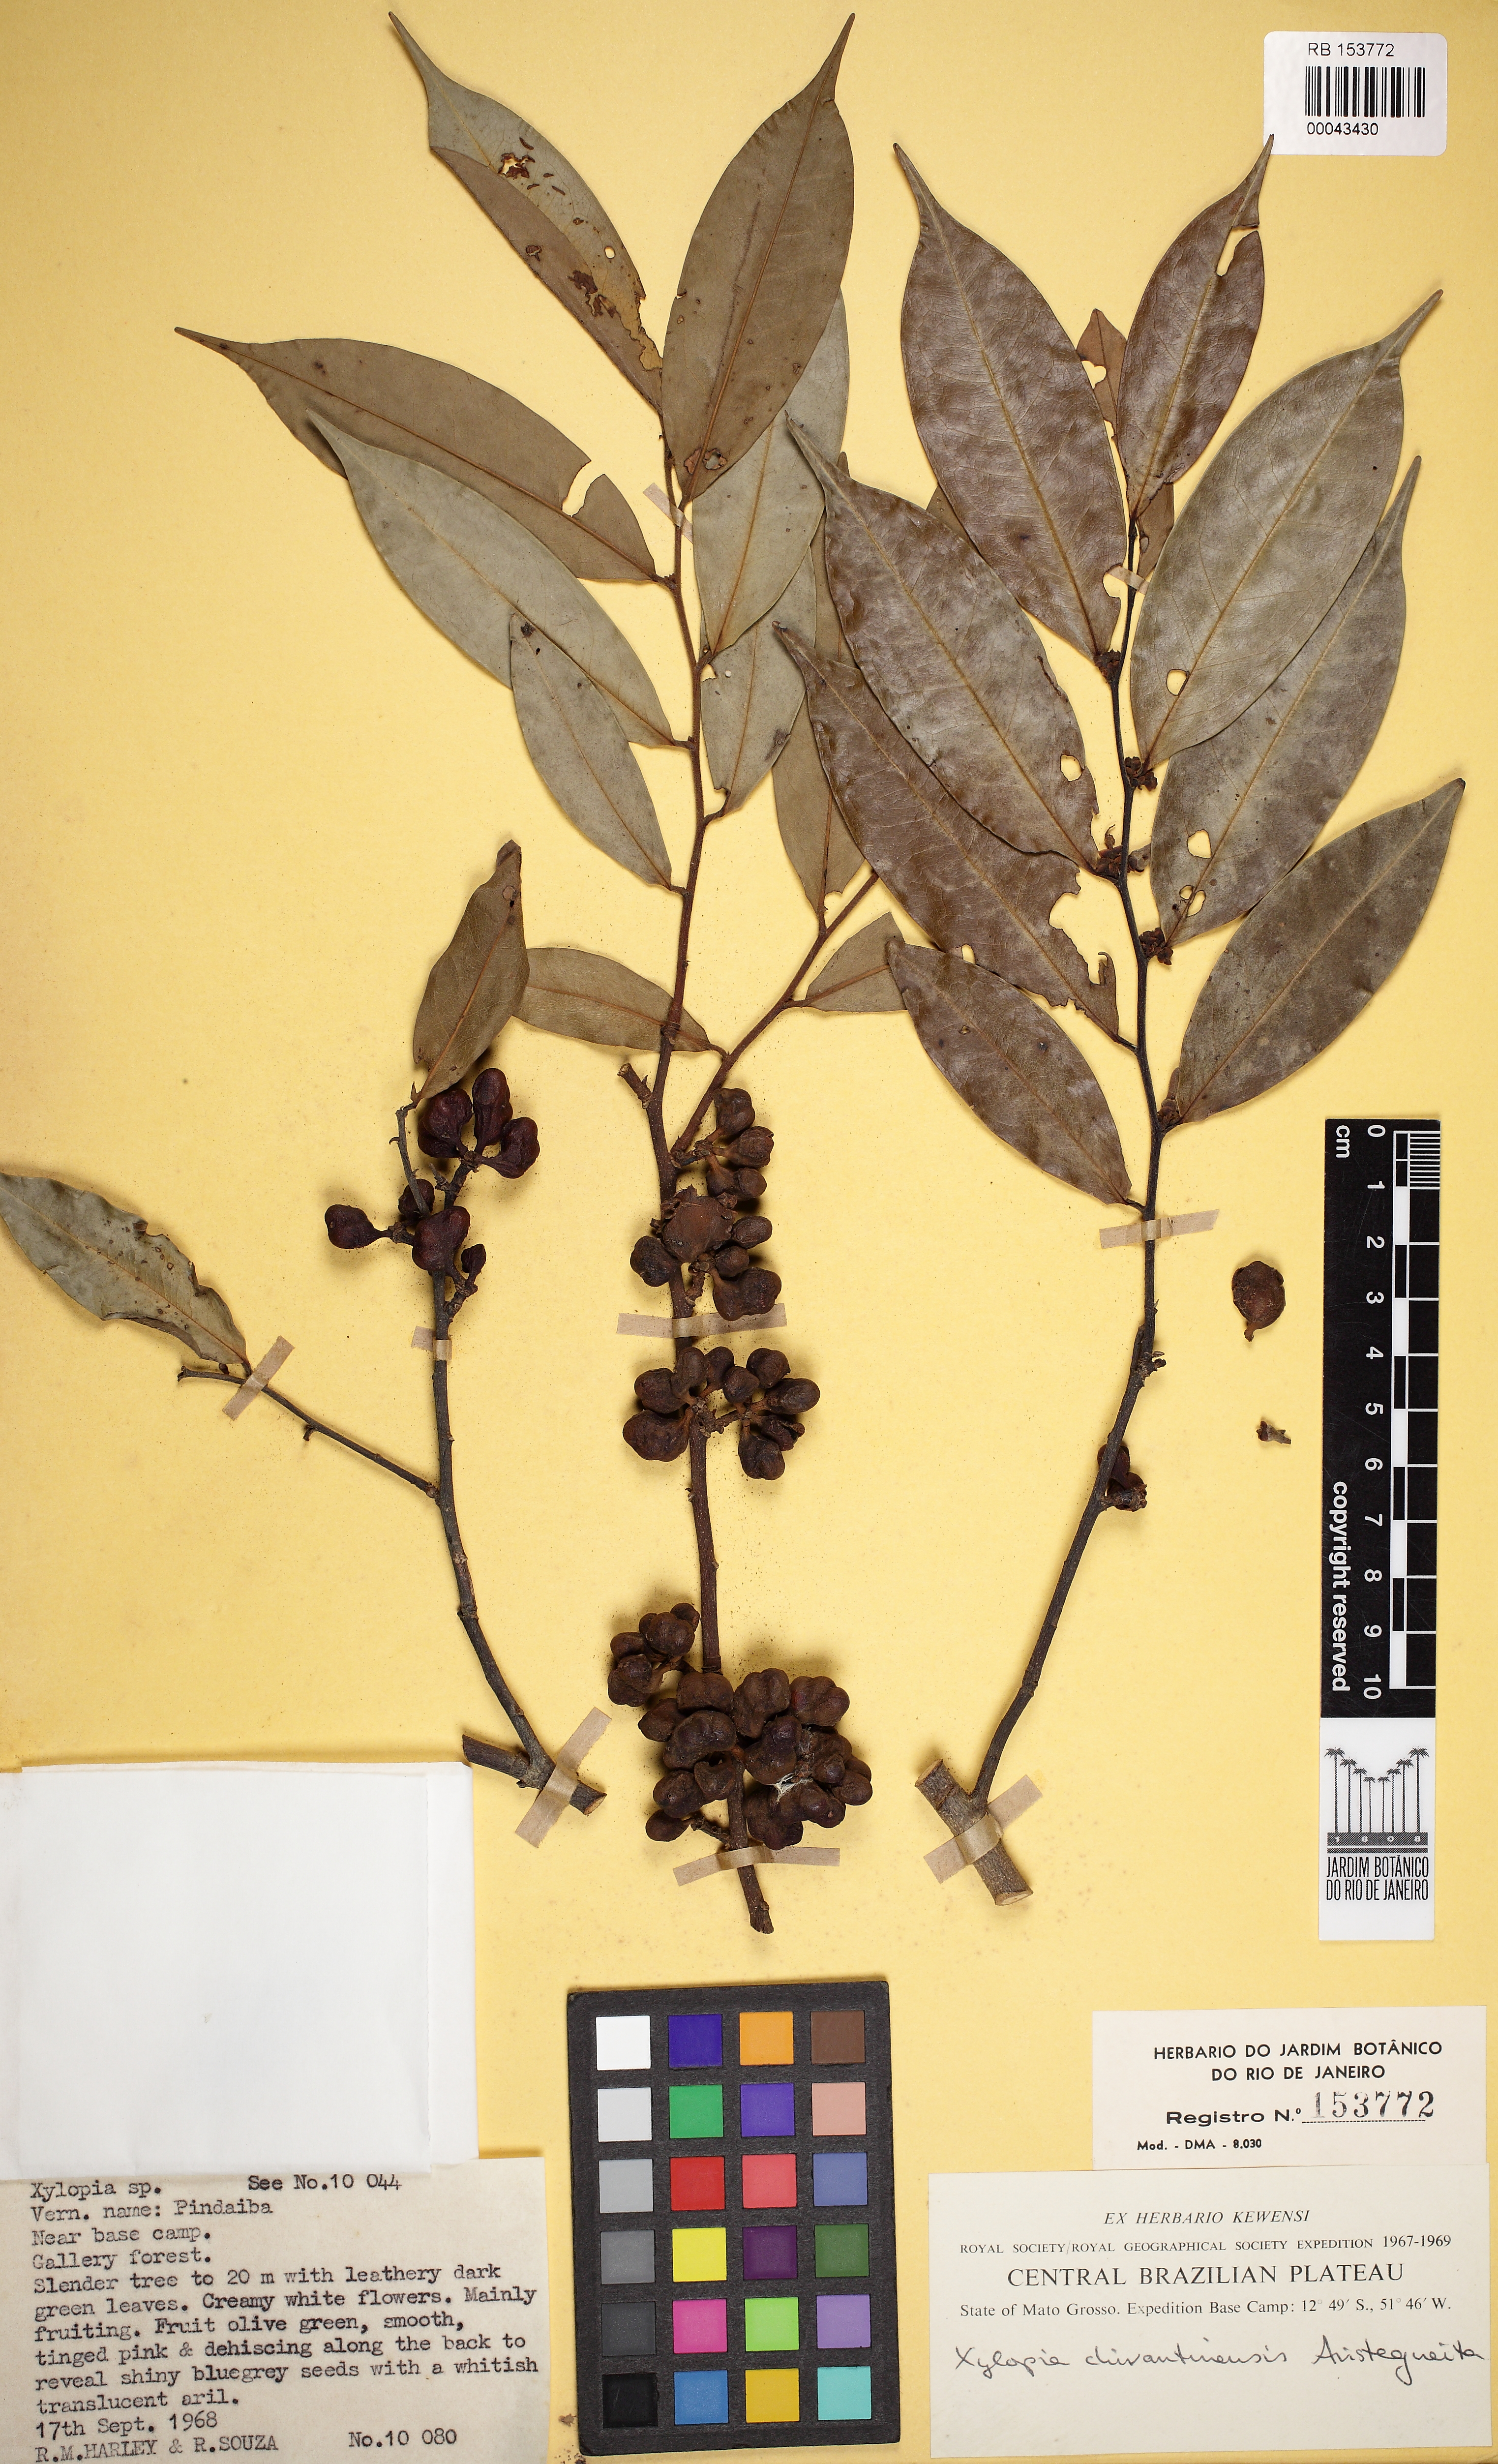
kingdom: Plantae
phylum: Tracheophyta
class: Magnoliopsida
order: Magnoliales
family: Annonaceae
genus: Xylopia
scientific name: Xylopia chivantinensis
